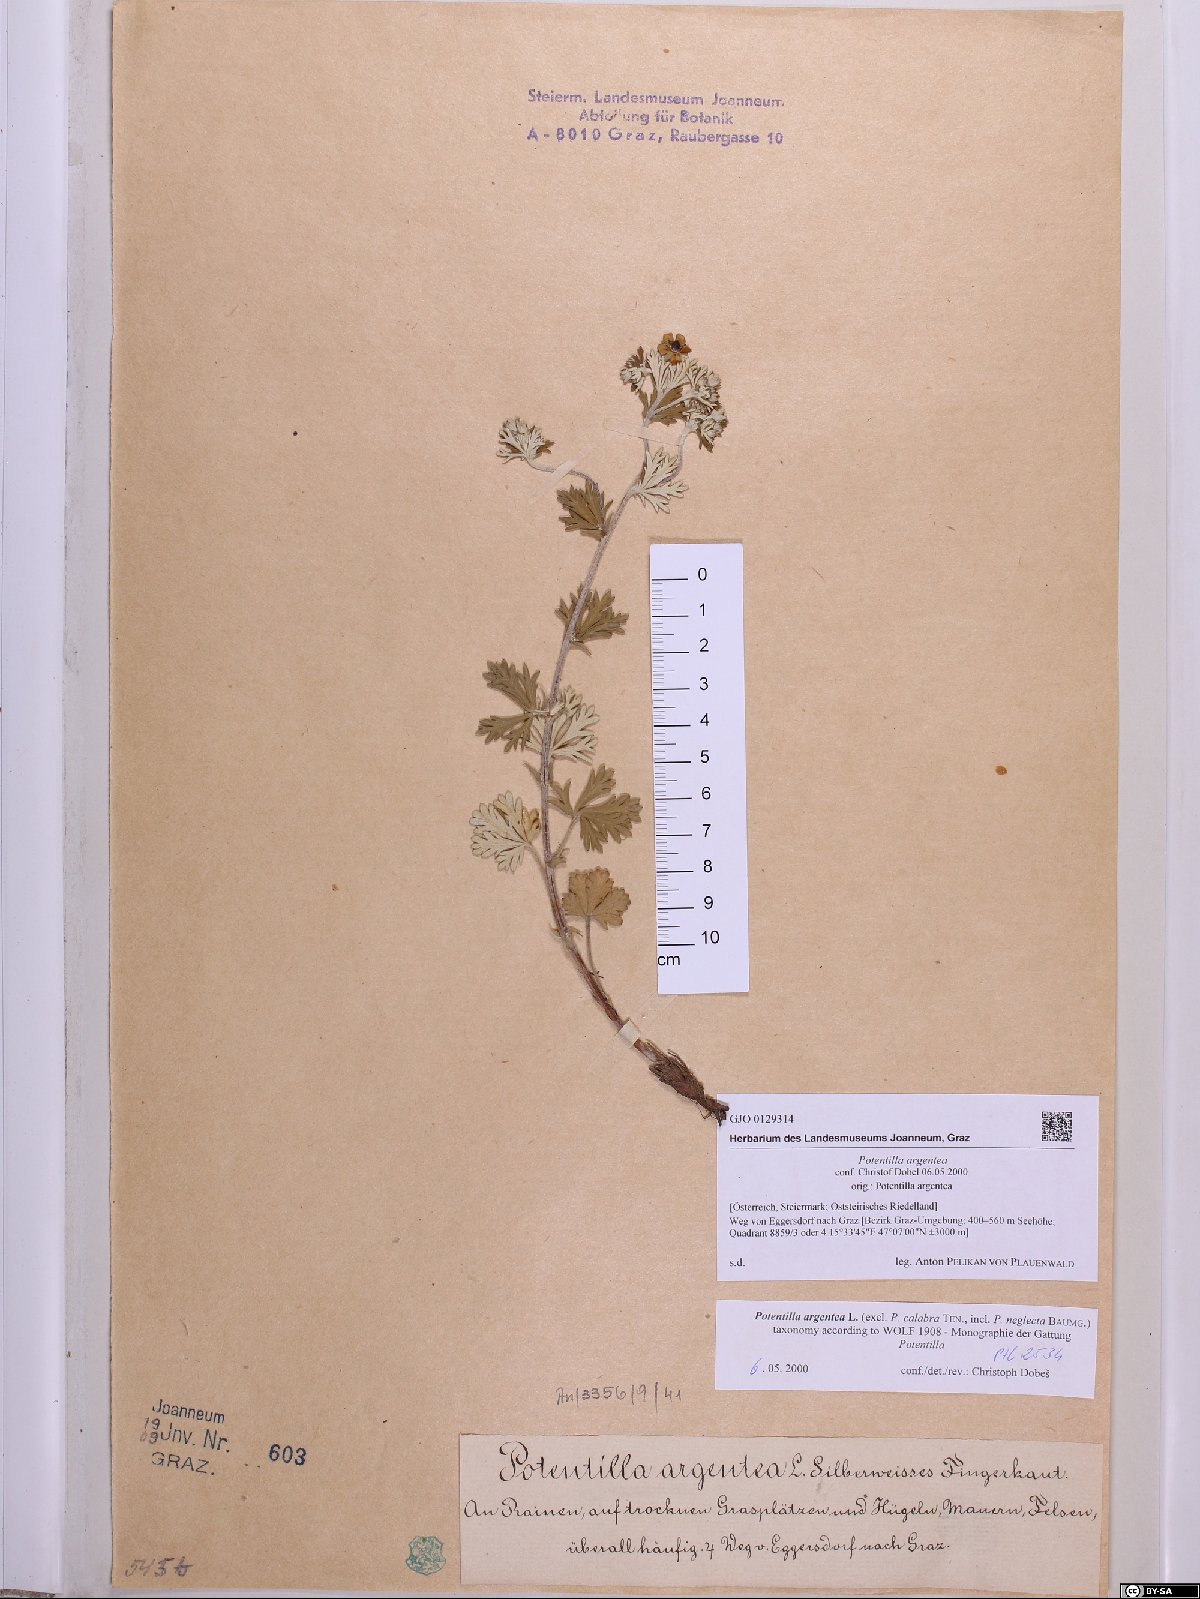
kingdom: Plantae
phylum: Tracheophyta
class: Magnoliopsida
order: Rosales
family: Rosaceae
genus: Potentilla
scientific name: Potentilla argentea
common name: Hoary cinquefoil
